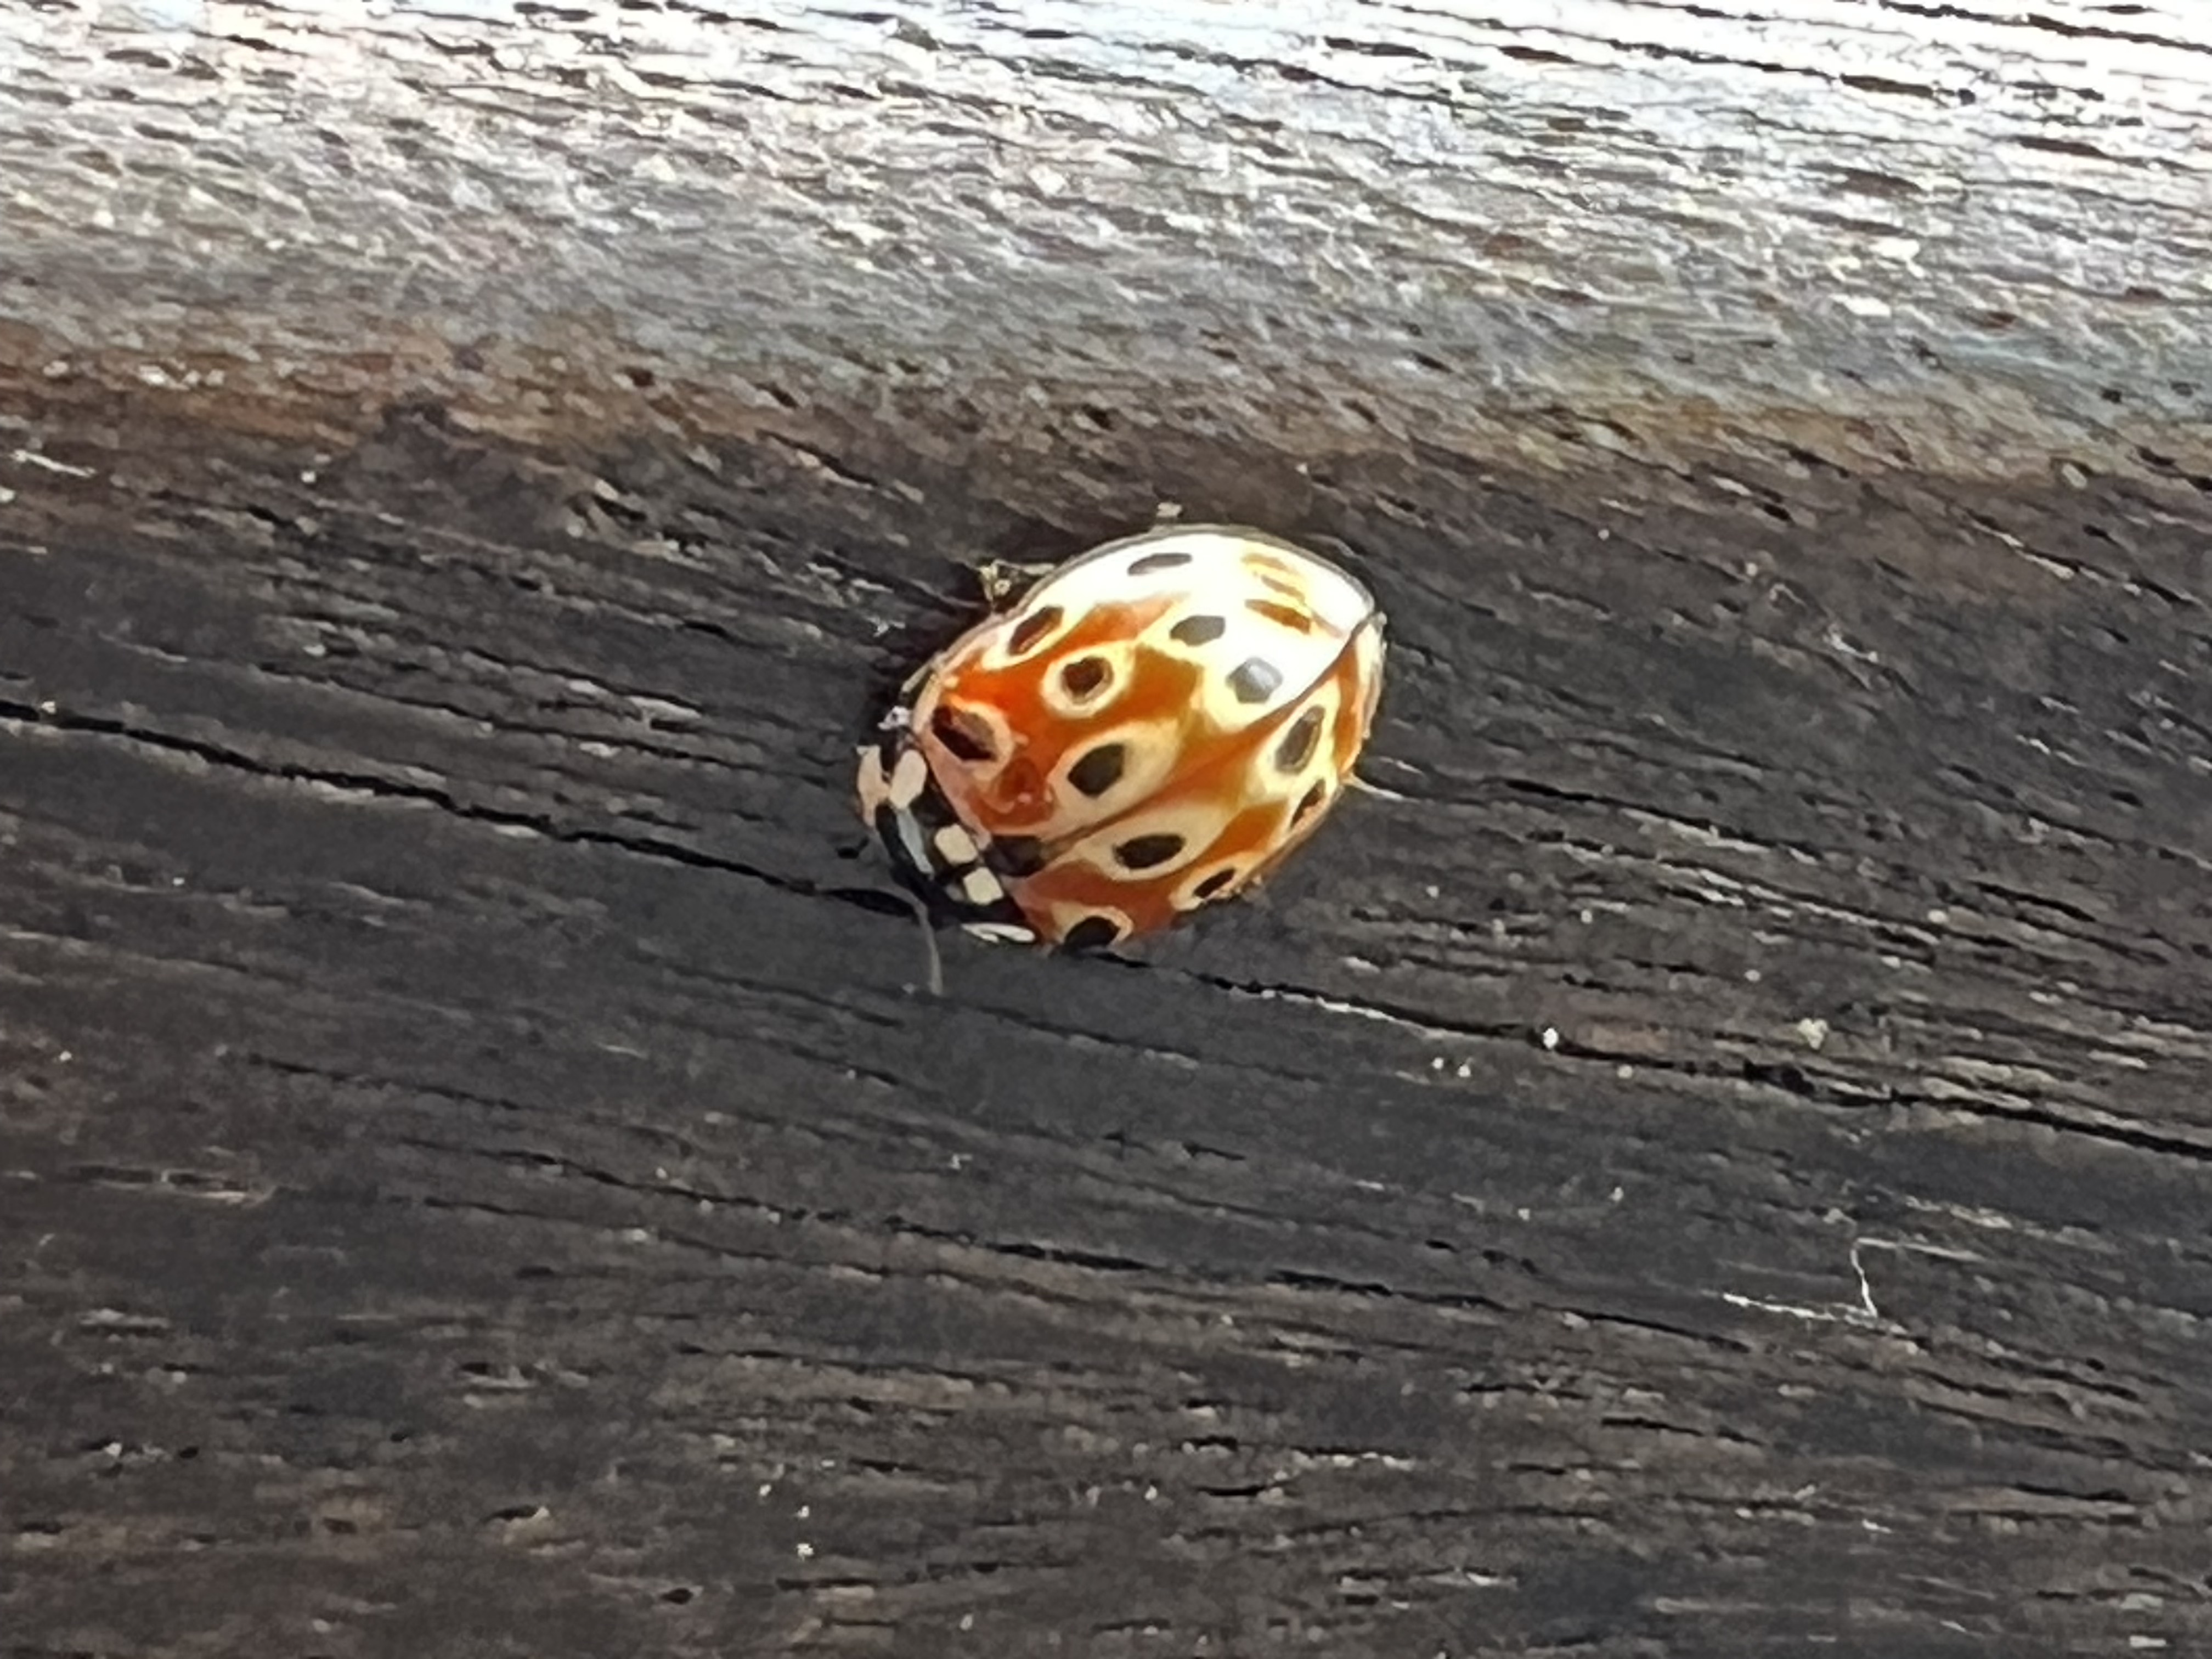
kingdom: Animalia
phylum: Arthropoda
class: Insecta
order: Coleoptera
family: Coccinellidae
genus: Anatis
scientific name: Anatis ocellata
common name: Eyed ladybird
